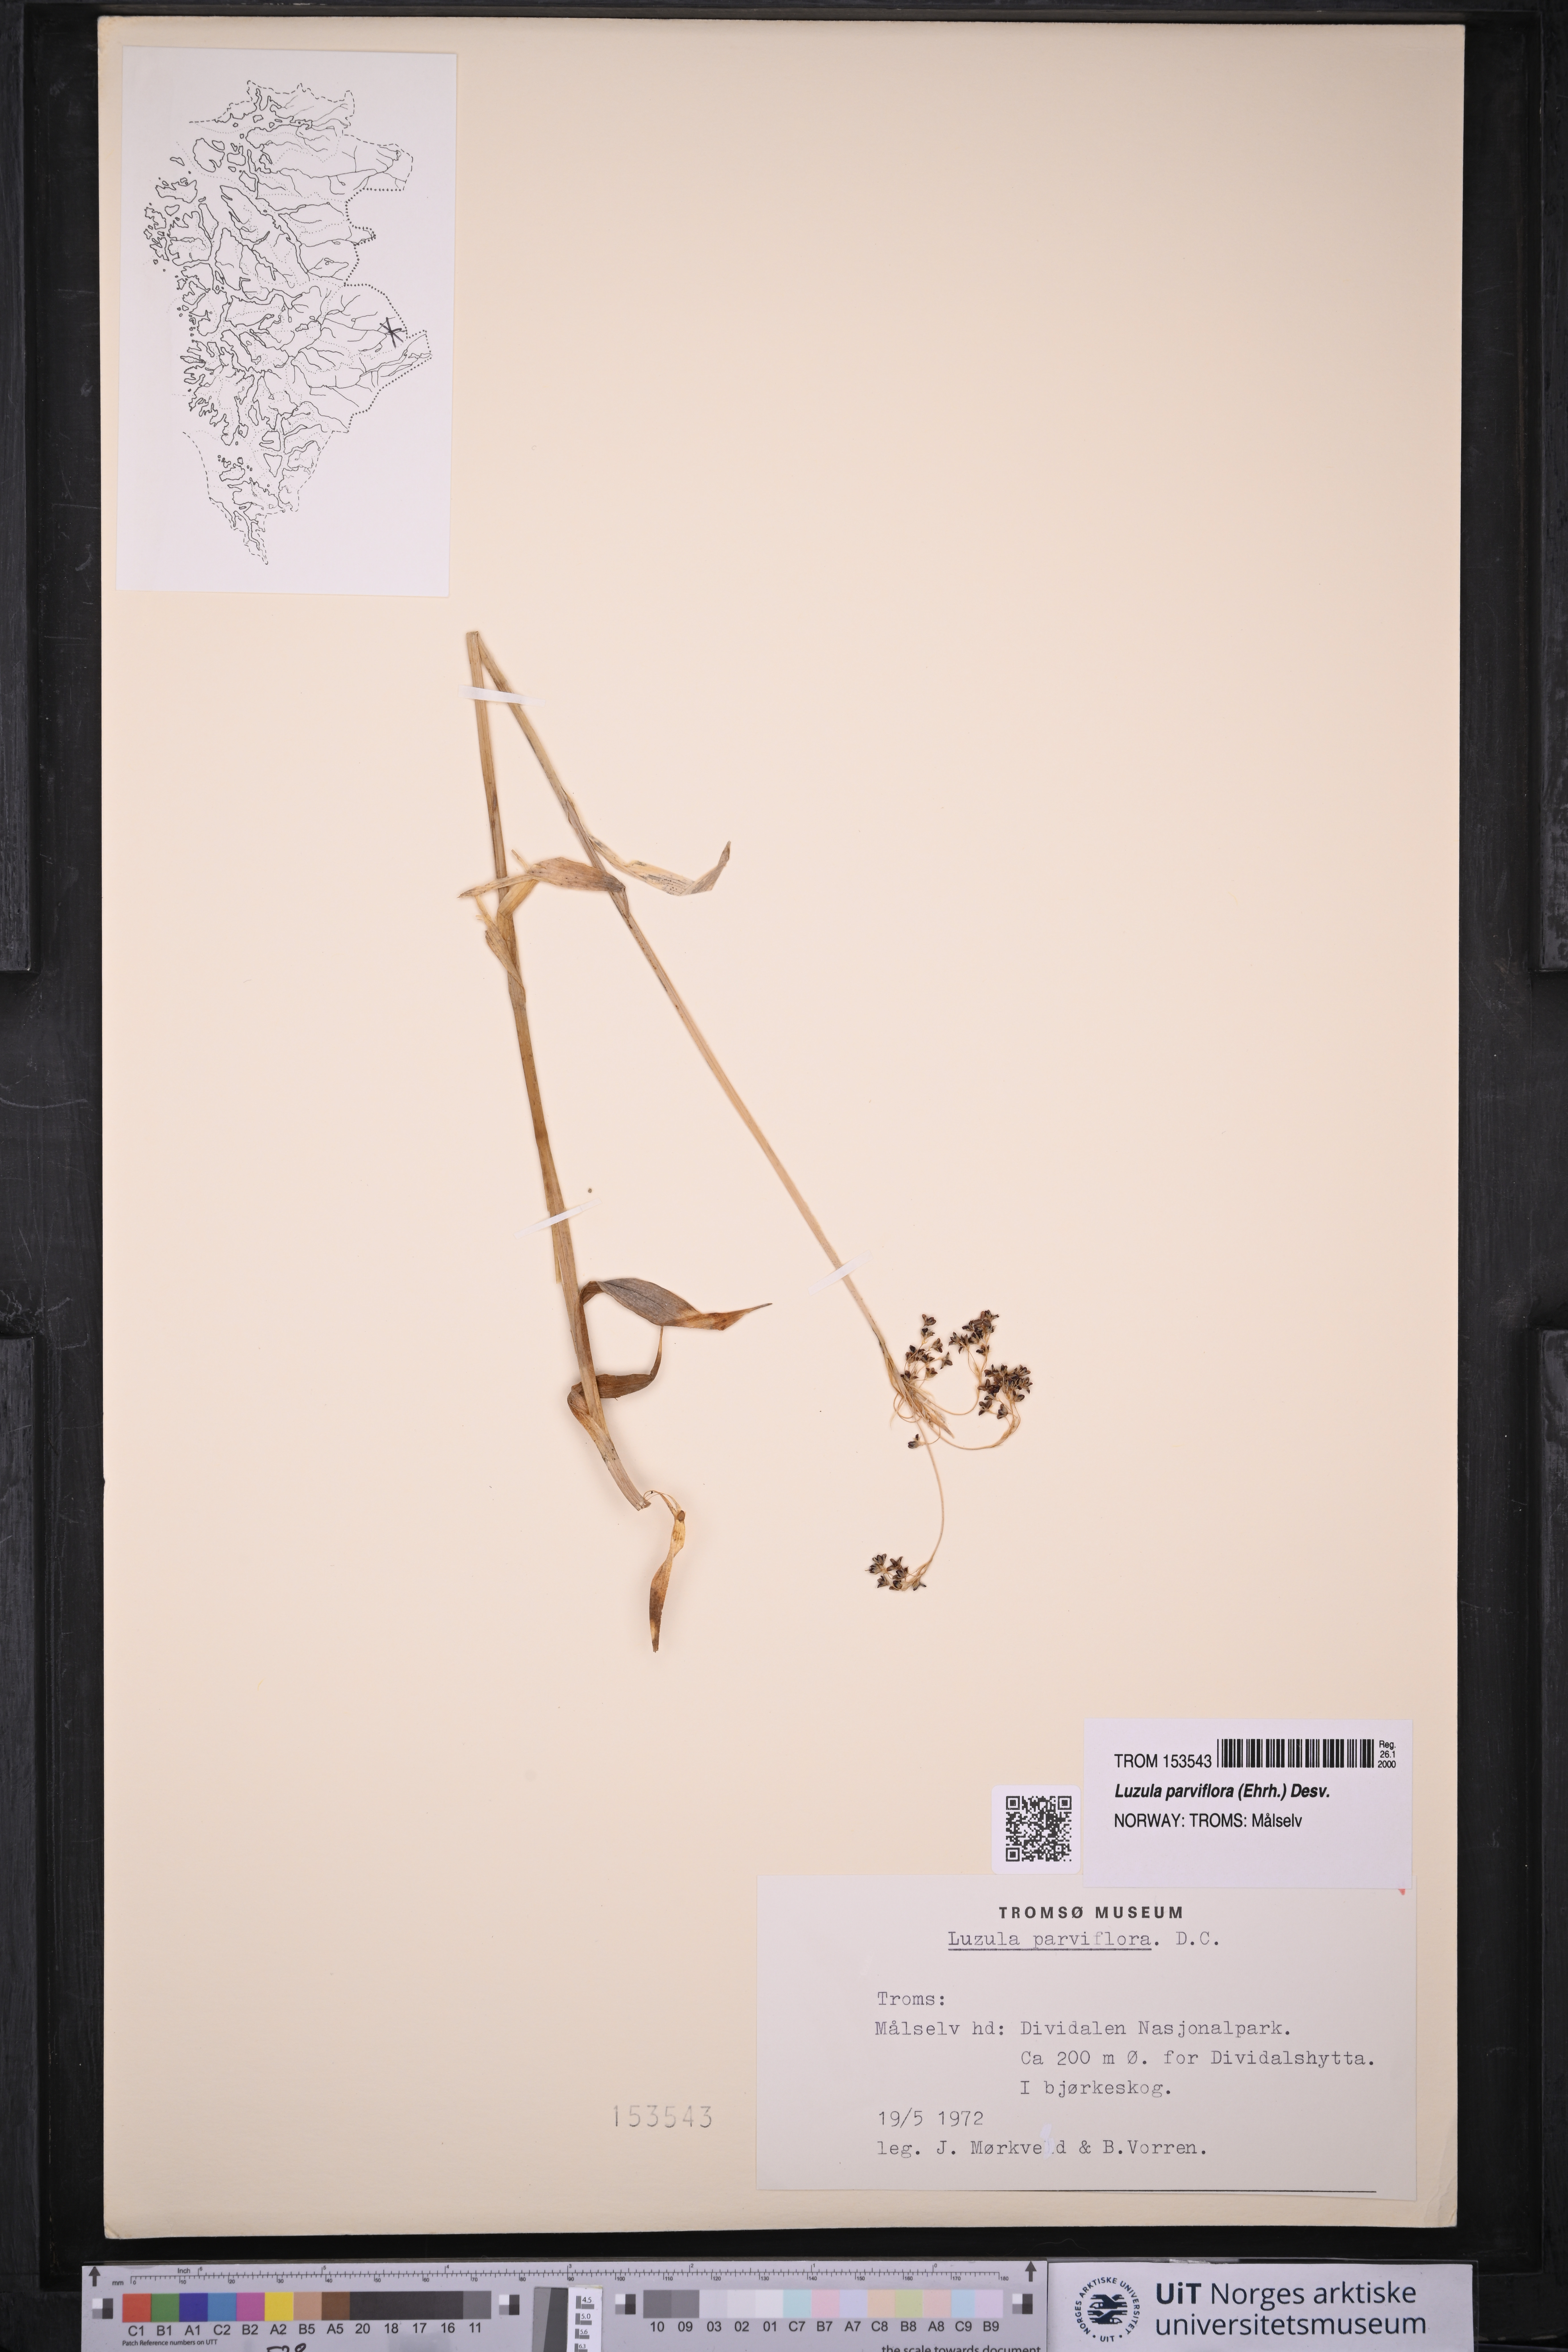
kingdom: Plantae
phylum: Tracheophyta
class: Liliopsida
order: Poales
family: Juncaceae
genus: Luzula
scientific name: Luzula parviflora
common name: Millet woodrush
